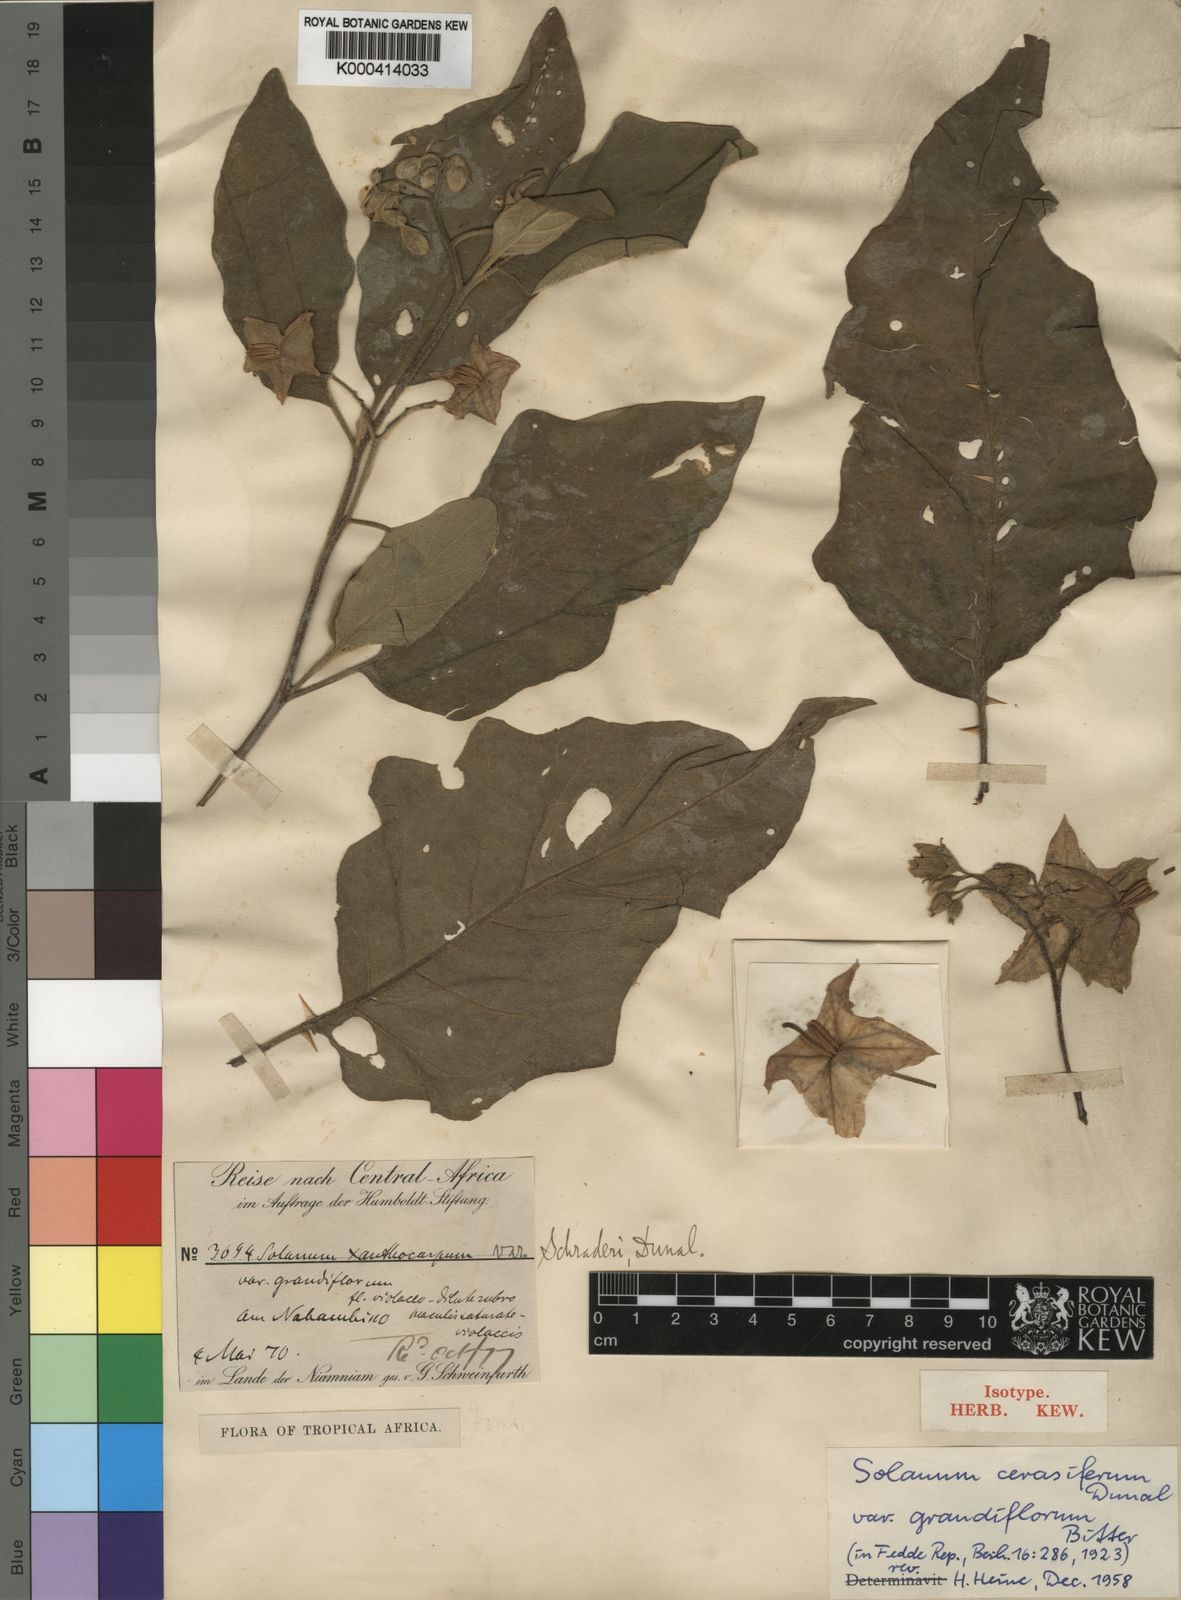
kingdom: Plantae
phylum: Tracheophyta
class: Magnoliopsida
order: Solanales
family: Solanaceae
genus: Solanum
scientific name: Solanum cerasiferum
